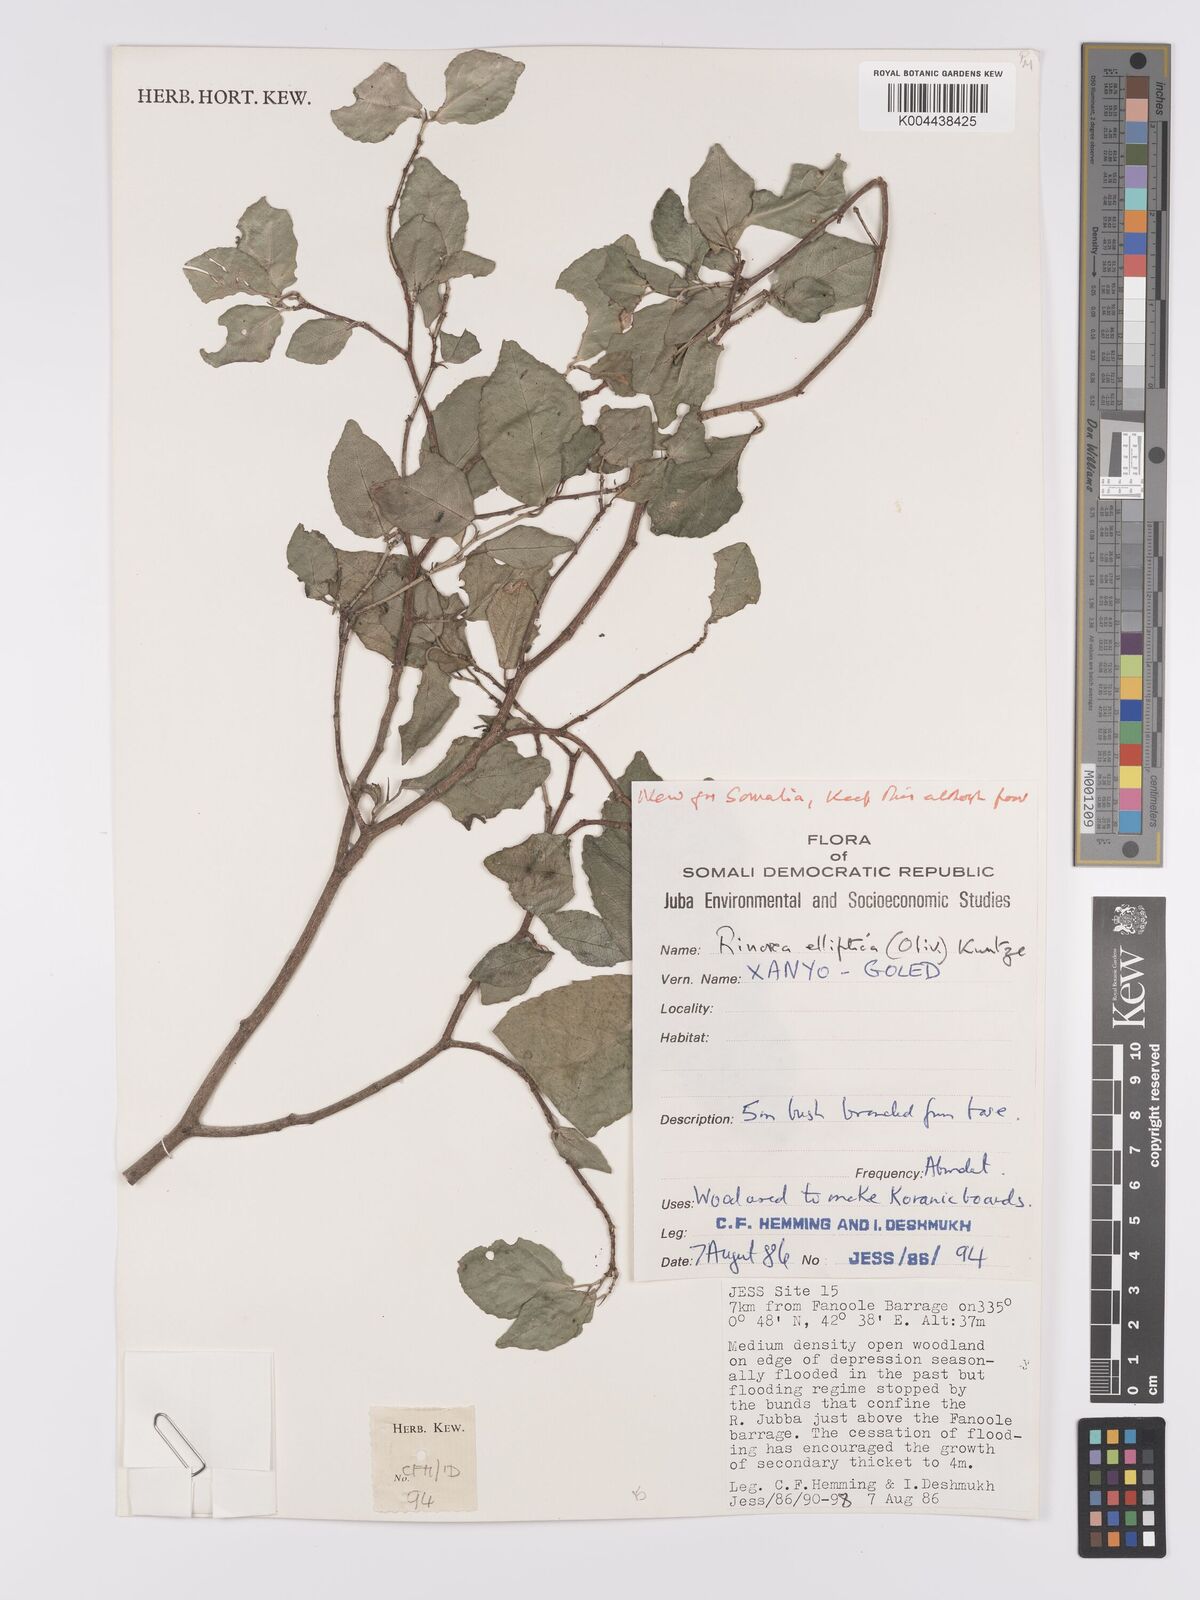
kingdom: Plantae
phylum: Tracheophyta
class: Magnoliopsida
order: Malpighiales
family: Violaceae
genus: Rinorea
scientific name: Rinorea elliptica
